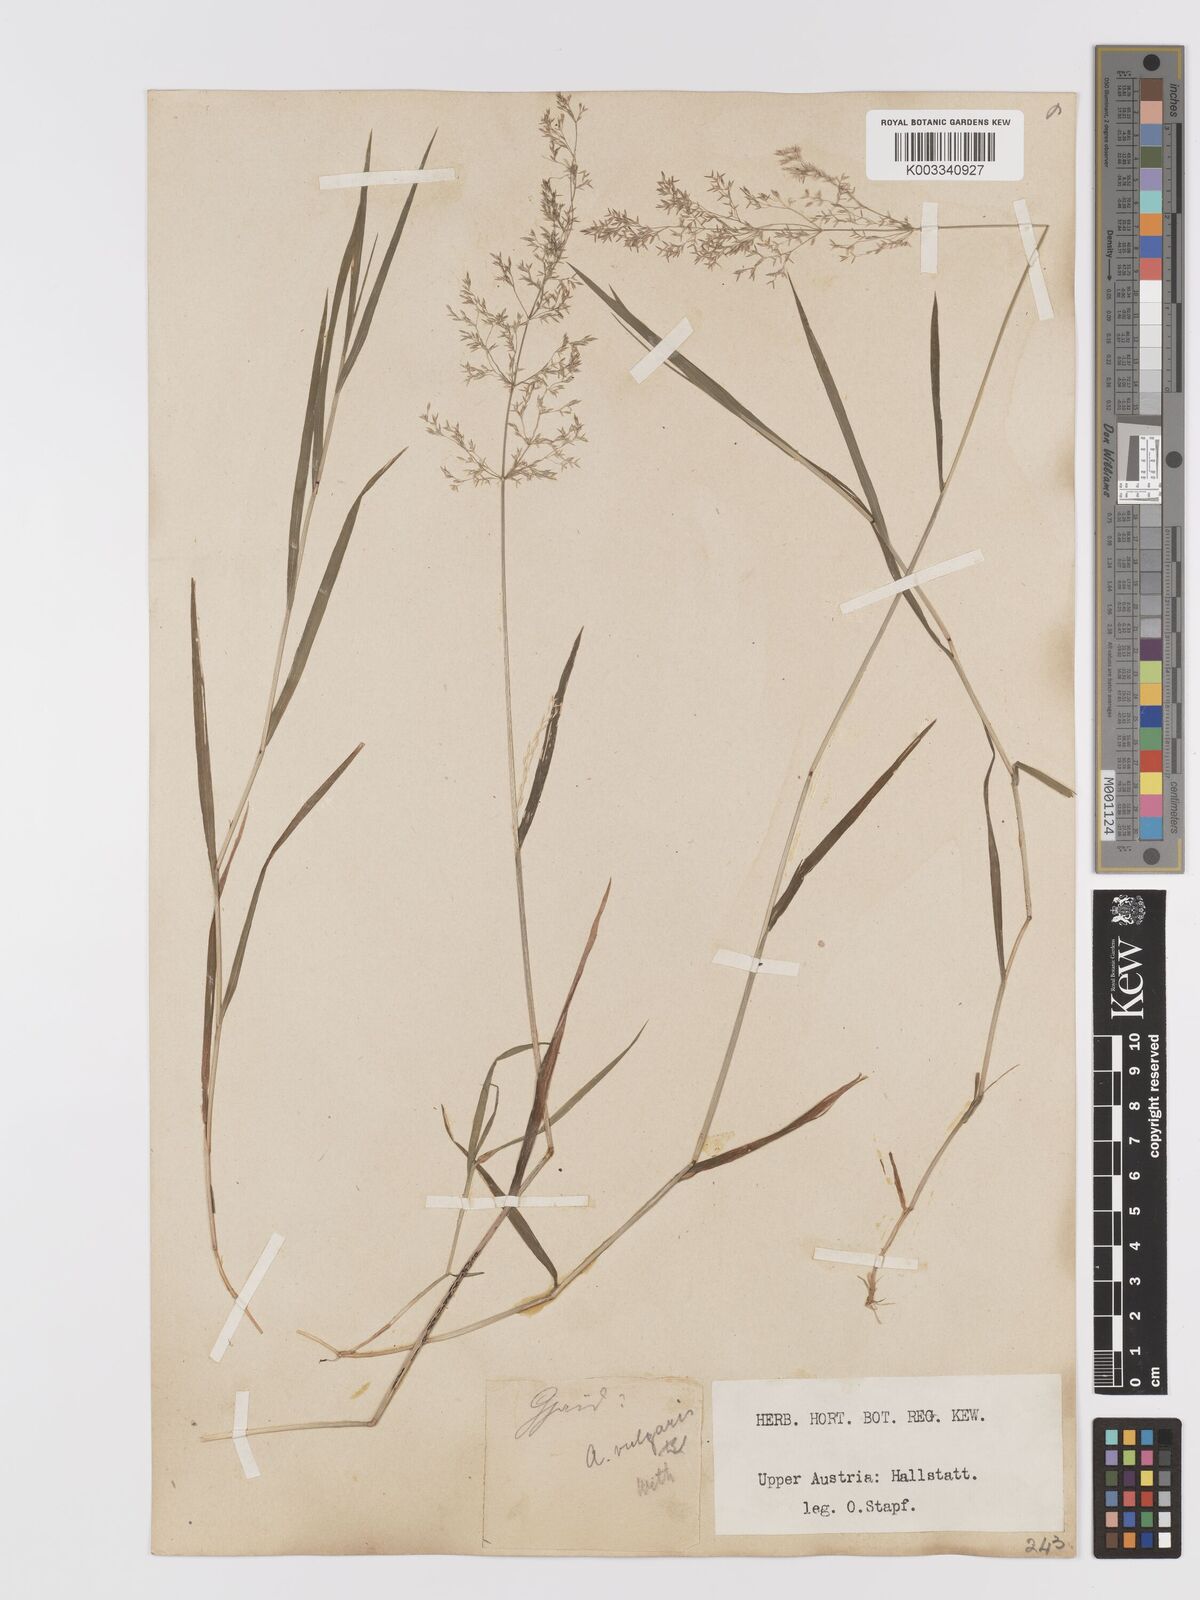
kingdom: Plantae
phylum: Tracheophyta
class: Liliopsida
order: Poales
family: Poaceae
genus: Agrostis
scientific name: Agrostis capillaris
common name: Colonial bentgrass
